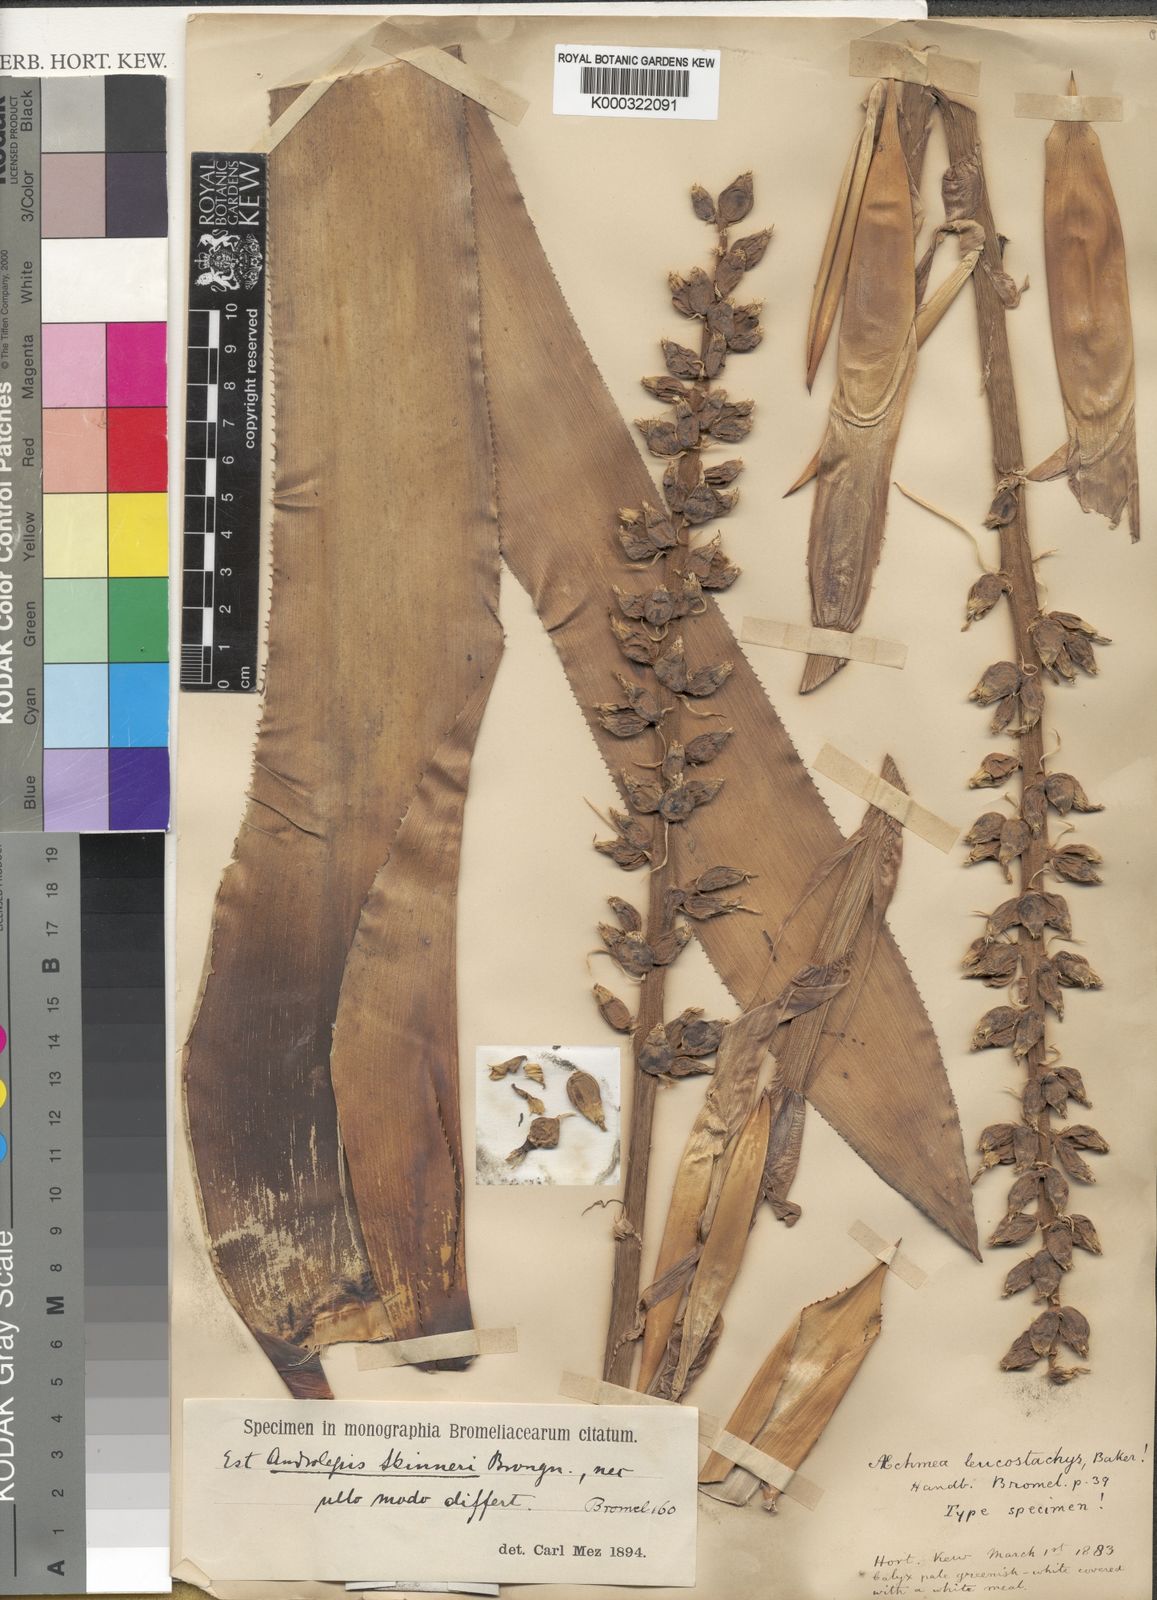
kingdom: Plantae
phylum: Tracheophyta
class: Liliopsida
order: Poales
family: Bromeliaceae
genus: Androlepis
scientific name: Androlepis skinneri
